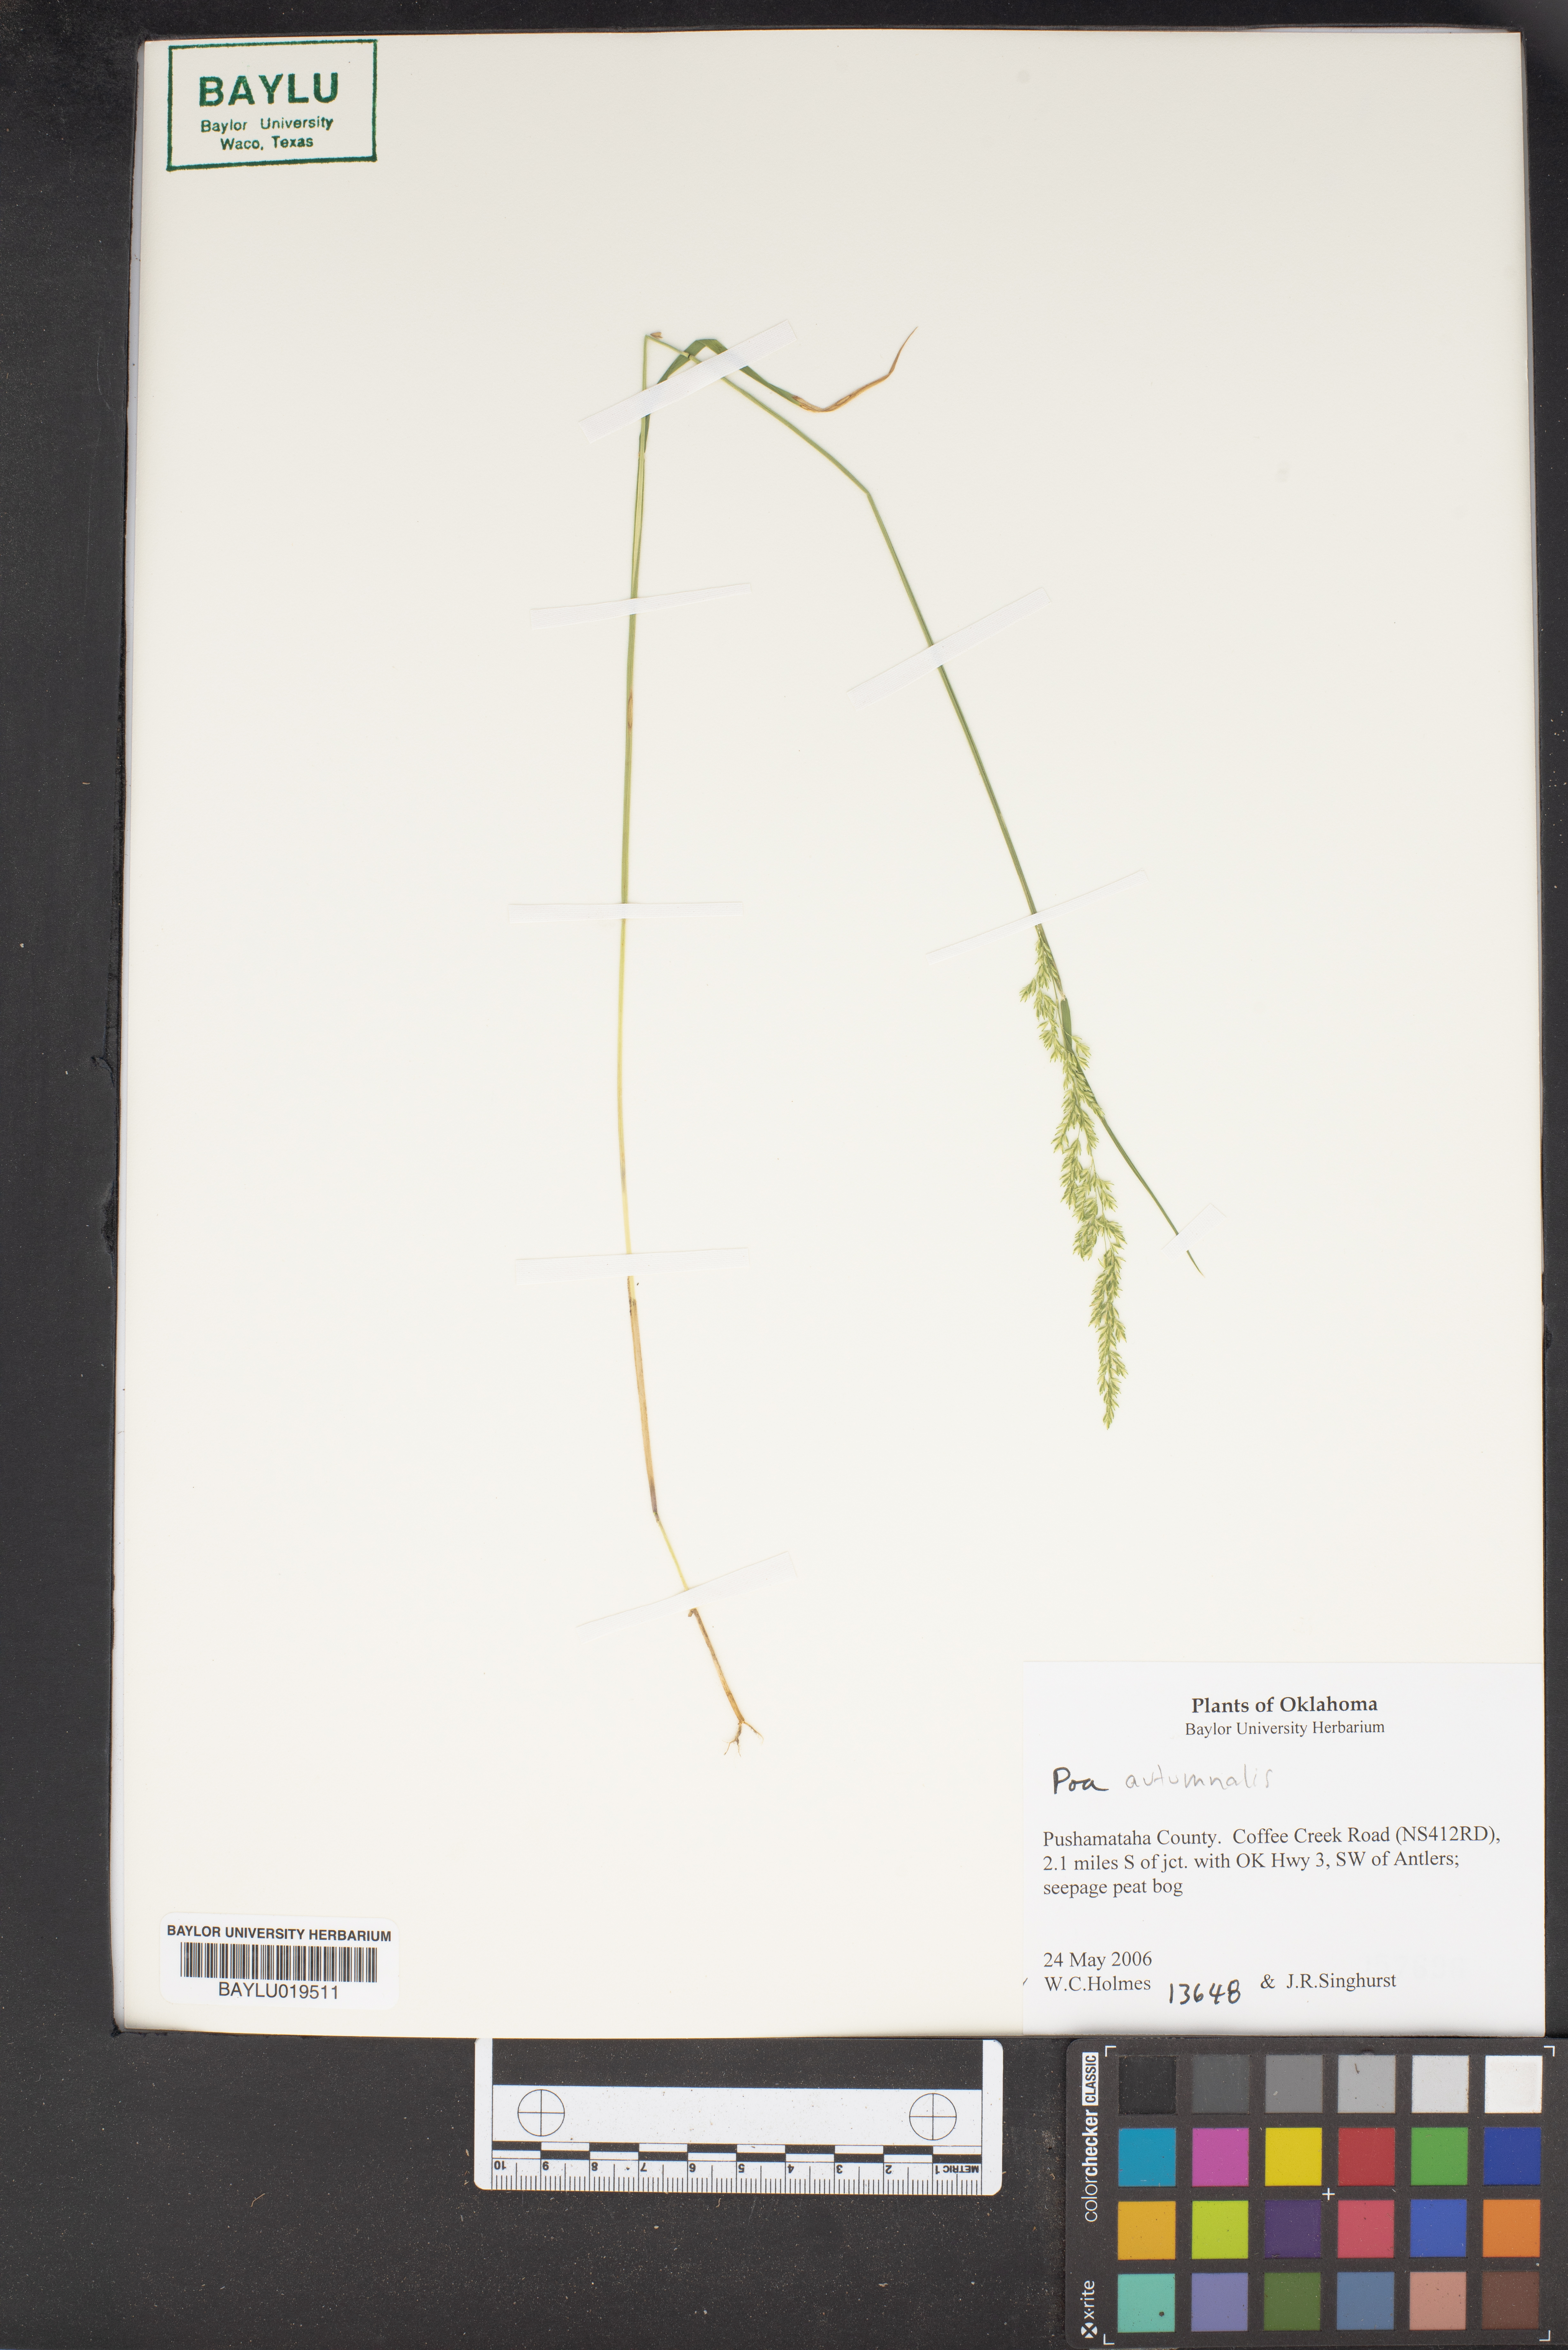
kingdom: Plantae
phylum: Tracheophyta
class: Liliopsida
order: Poales
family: Poaceae
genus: Poa
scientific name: Poa autumnalis
